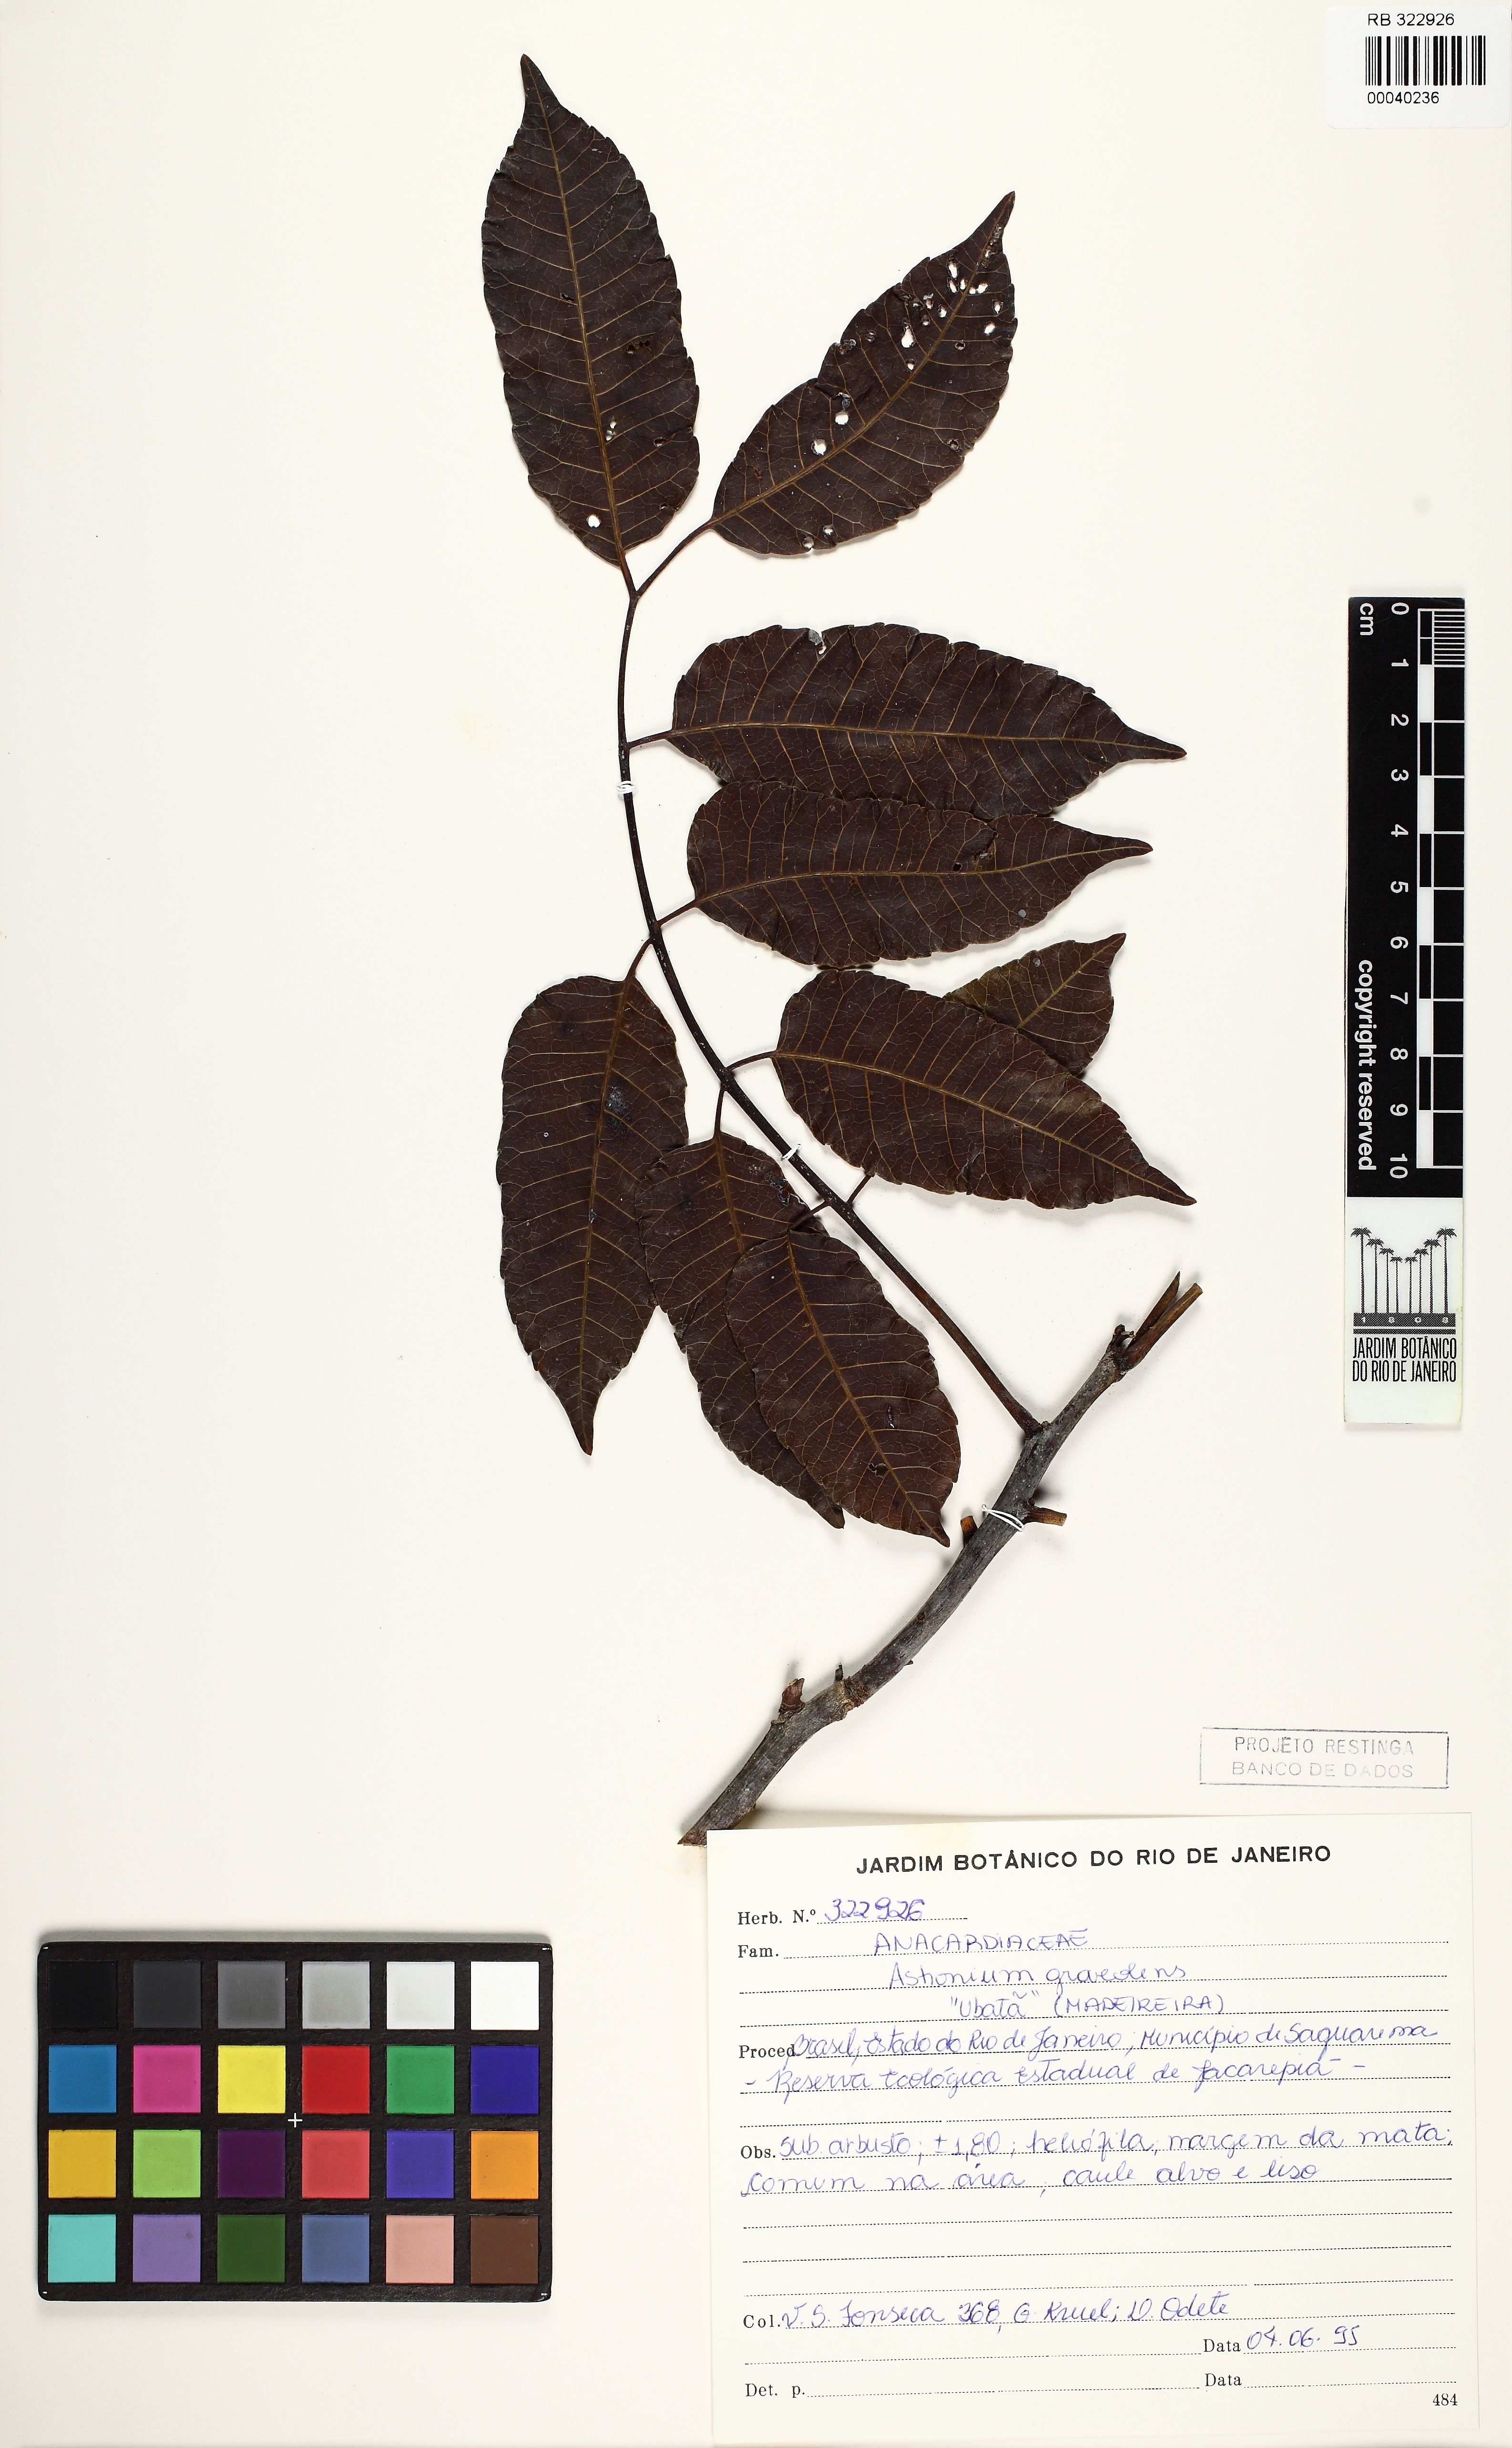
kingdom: Plantae
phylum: Tracheophyta
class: Magnoliopsida
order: Sapindales
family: Anacardiaceae
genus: Astronium
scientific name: Astronium graveolens
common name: Glassywood
